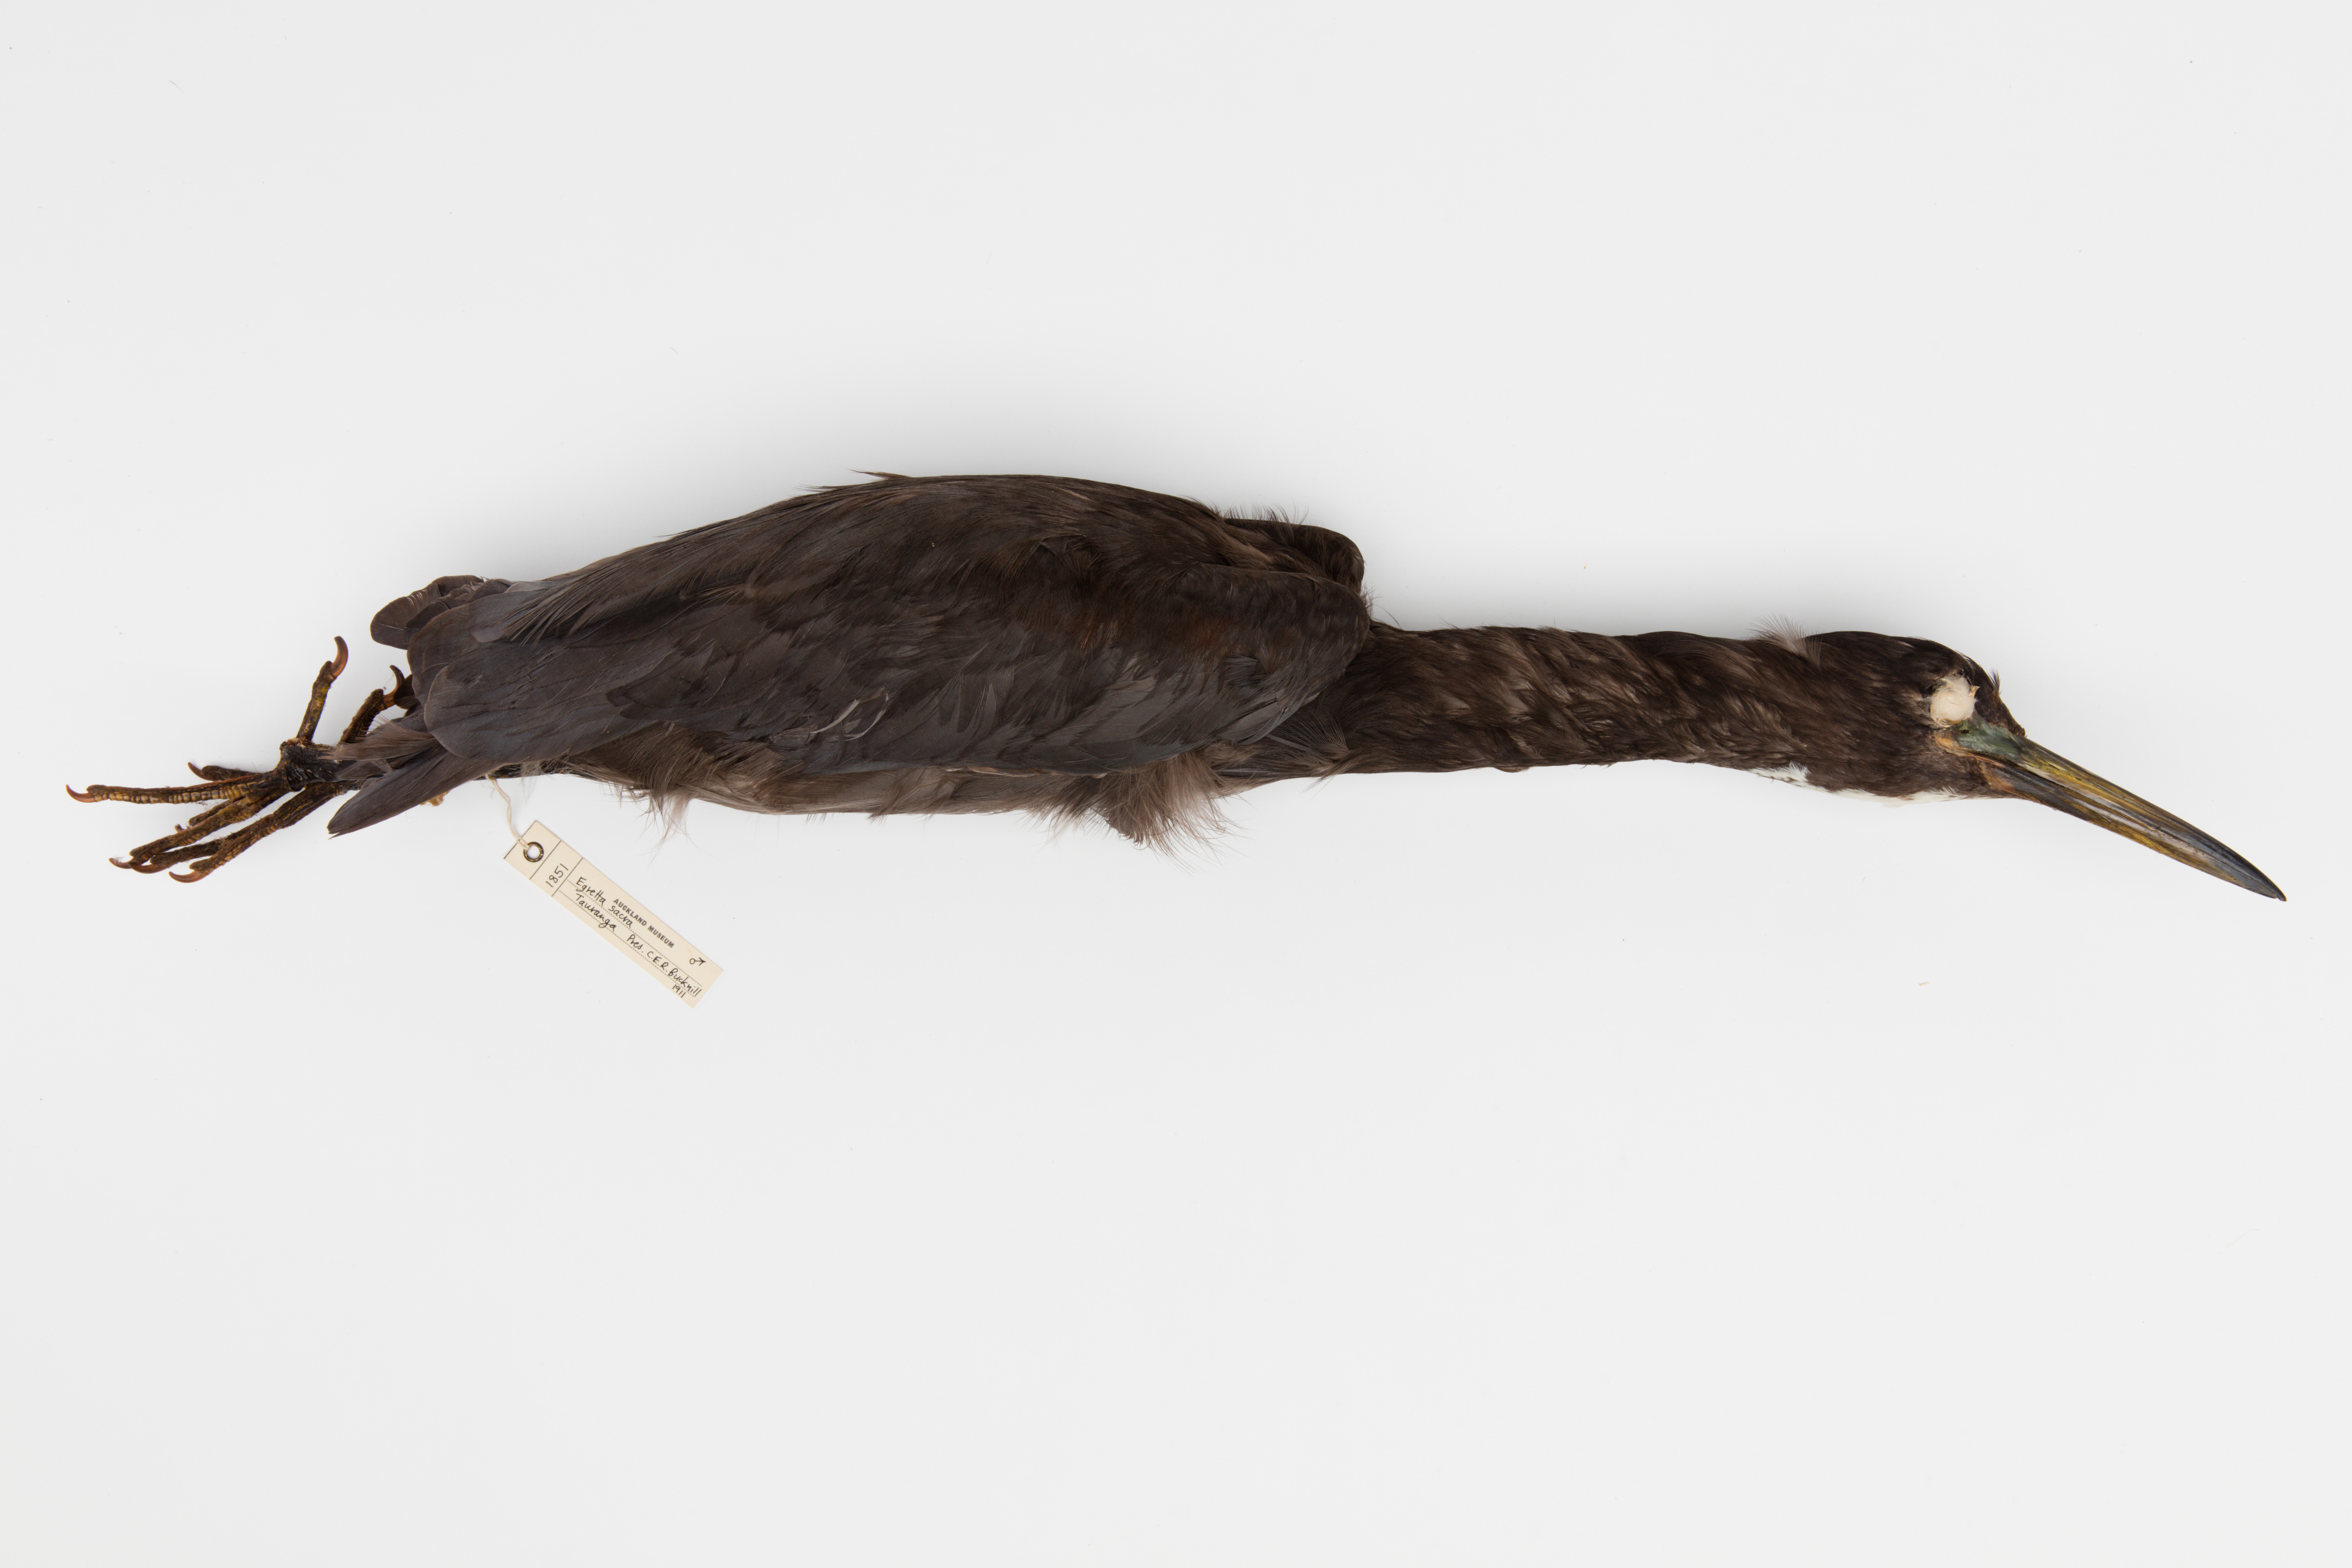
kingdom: Animalia
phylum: Chordata
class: Aves
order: Pelecaniformes
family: Ardeidae
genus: Egretta
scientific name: Egretta sacra
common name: Pacific reef heron
